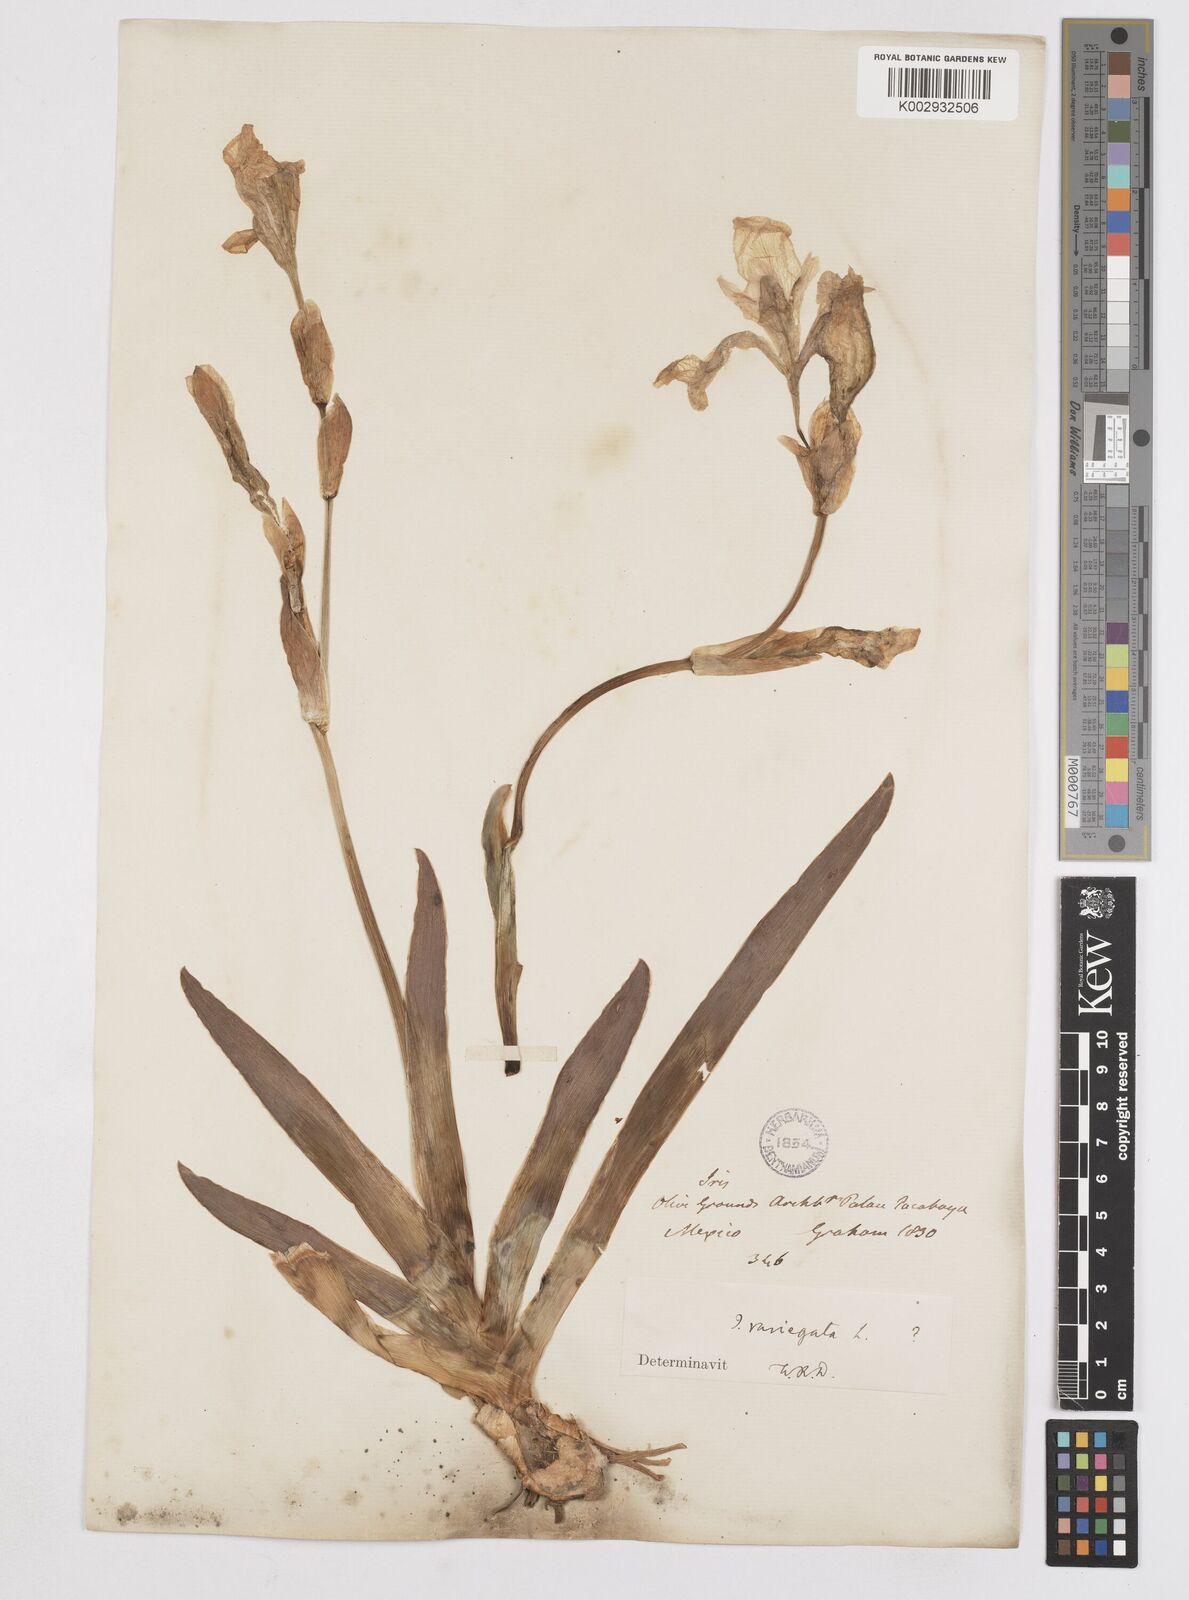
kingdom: Plantae
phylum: Tracheophyta
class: Liliopsida
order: Asparagales
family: Iridaceae
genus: Iris
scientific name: Iris variegata
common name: Hungarian iris
